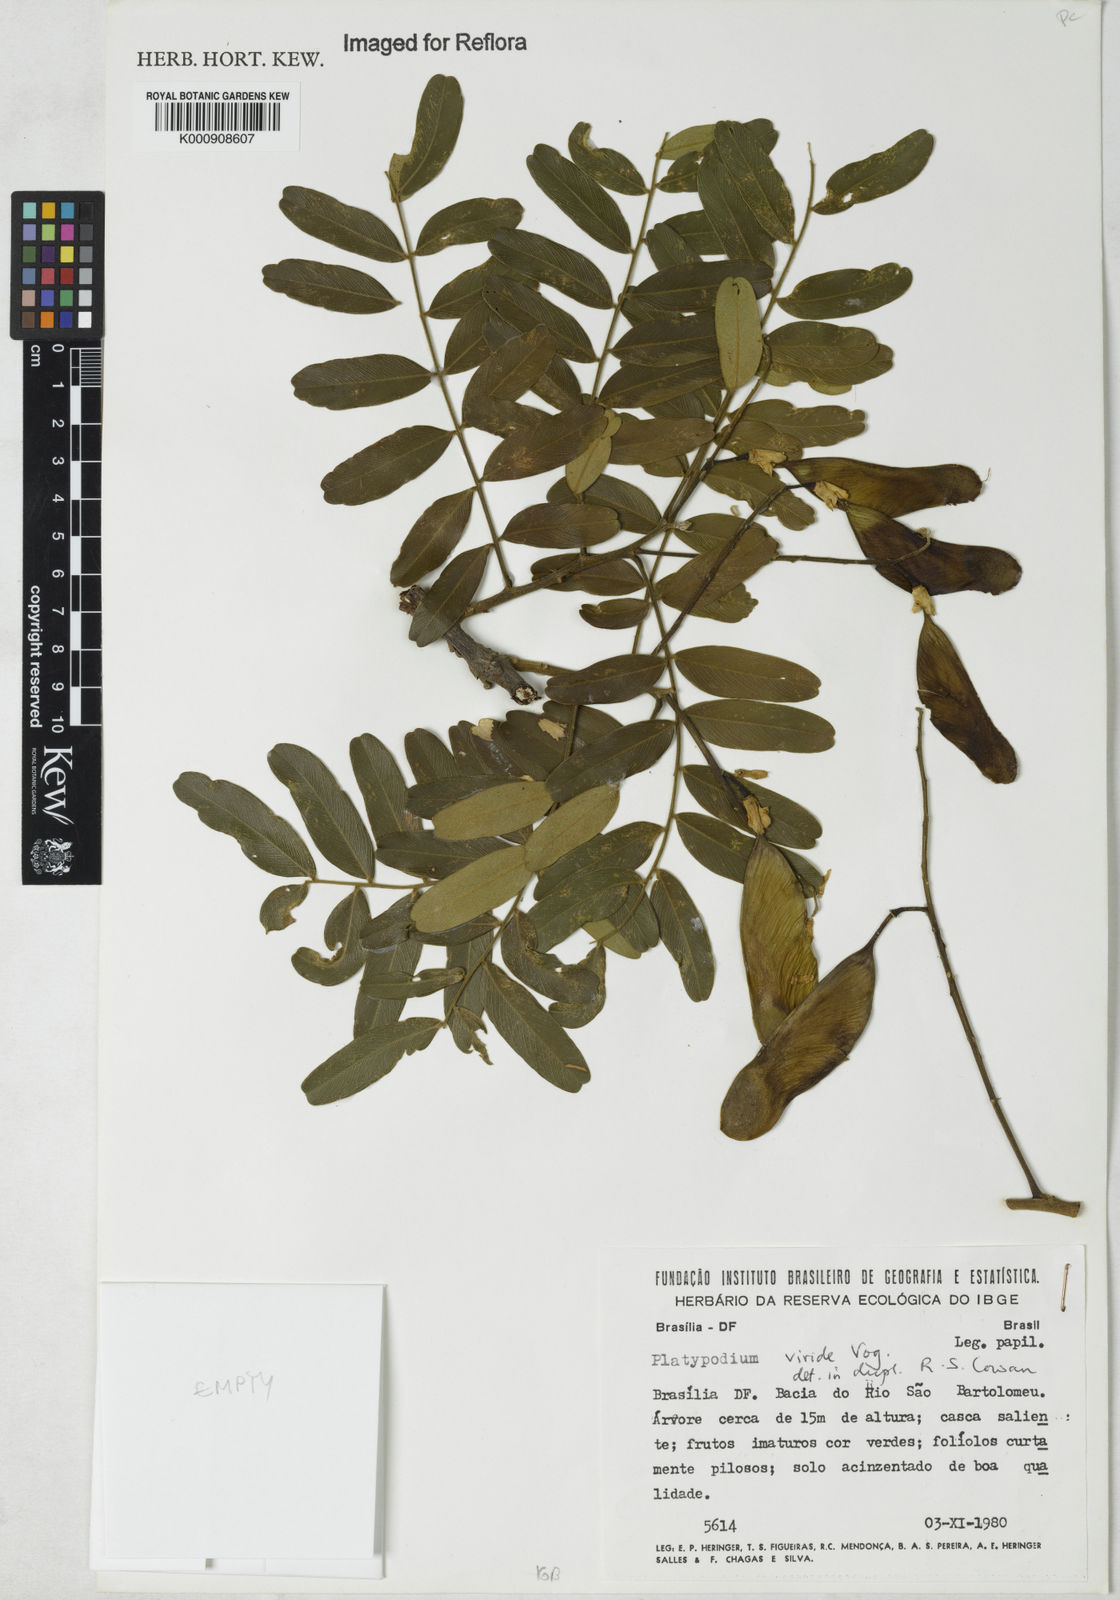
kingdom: Plantae
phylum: Tracheophyta
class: Magnoliopsida
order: Fabales
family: Fabaceae
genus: Platypodium
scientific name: Platypodium viride
